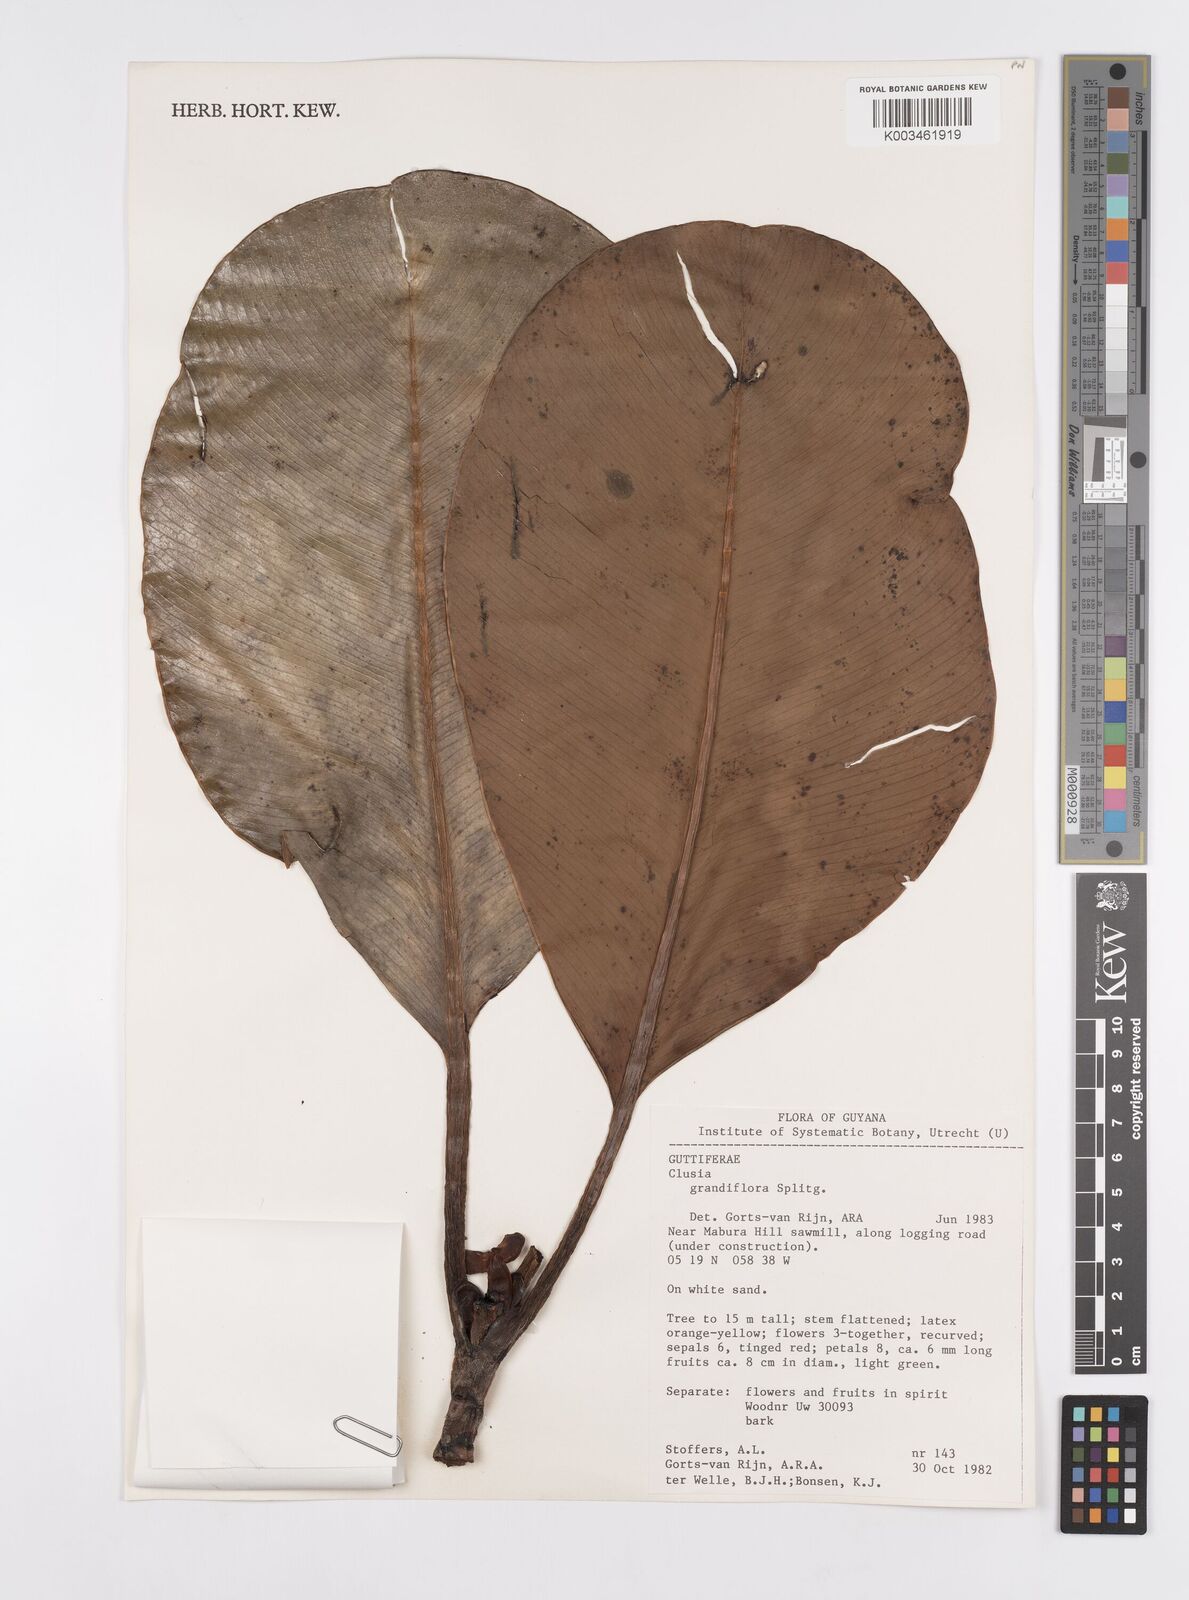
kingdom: Plantae
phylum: Tracheophyta
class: Magnoliopsida
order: Malpighiales
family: Clusiaceae
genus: Clusia
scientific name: Clusia grandiflora
